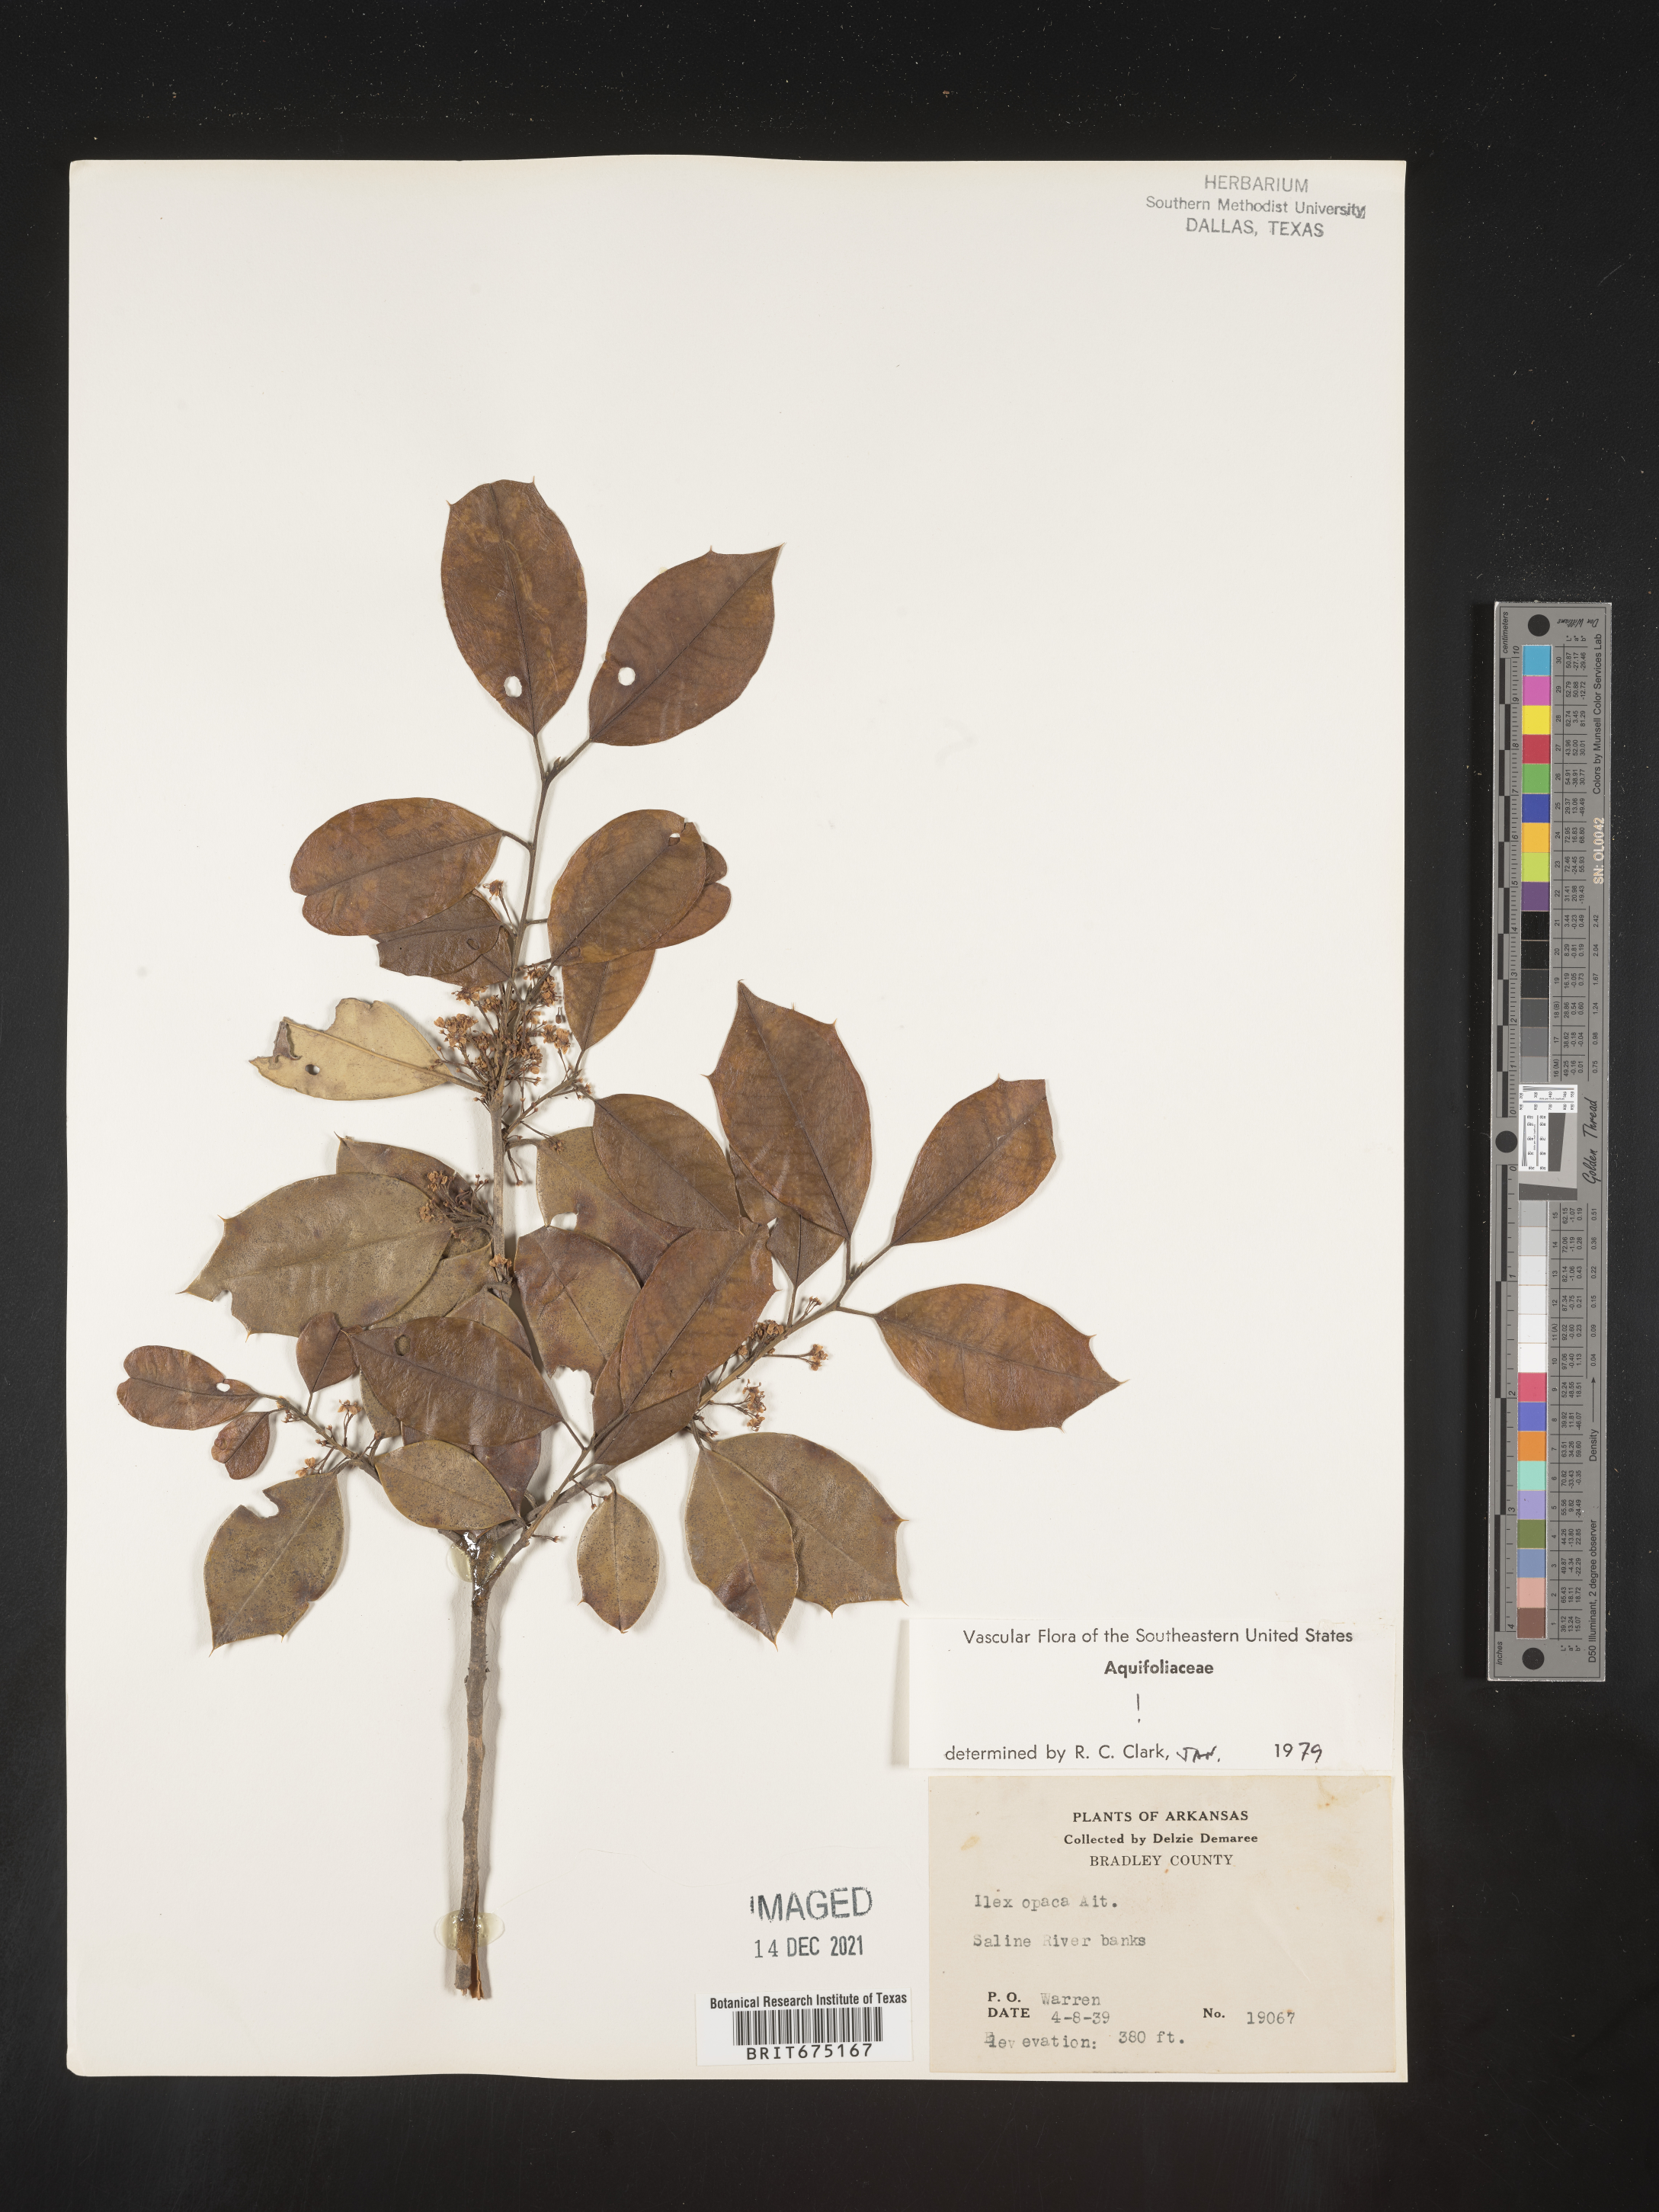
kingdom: Plantae
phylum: Tracheophyta
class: Magnoliopsida
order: Aquifoliales
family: Aquifoliaceae
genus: Ilex
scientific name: Ilex opaca
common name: American holly
